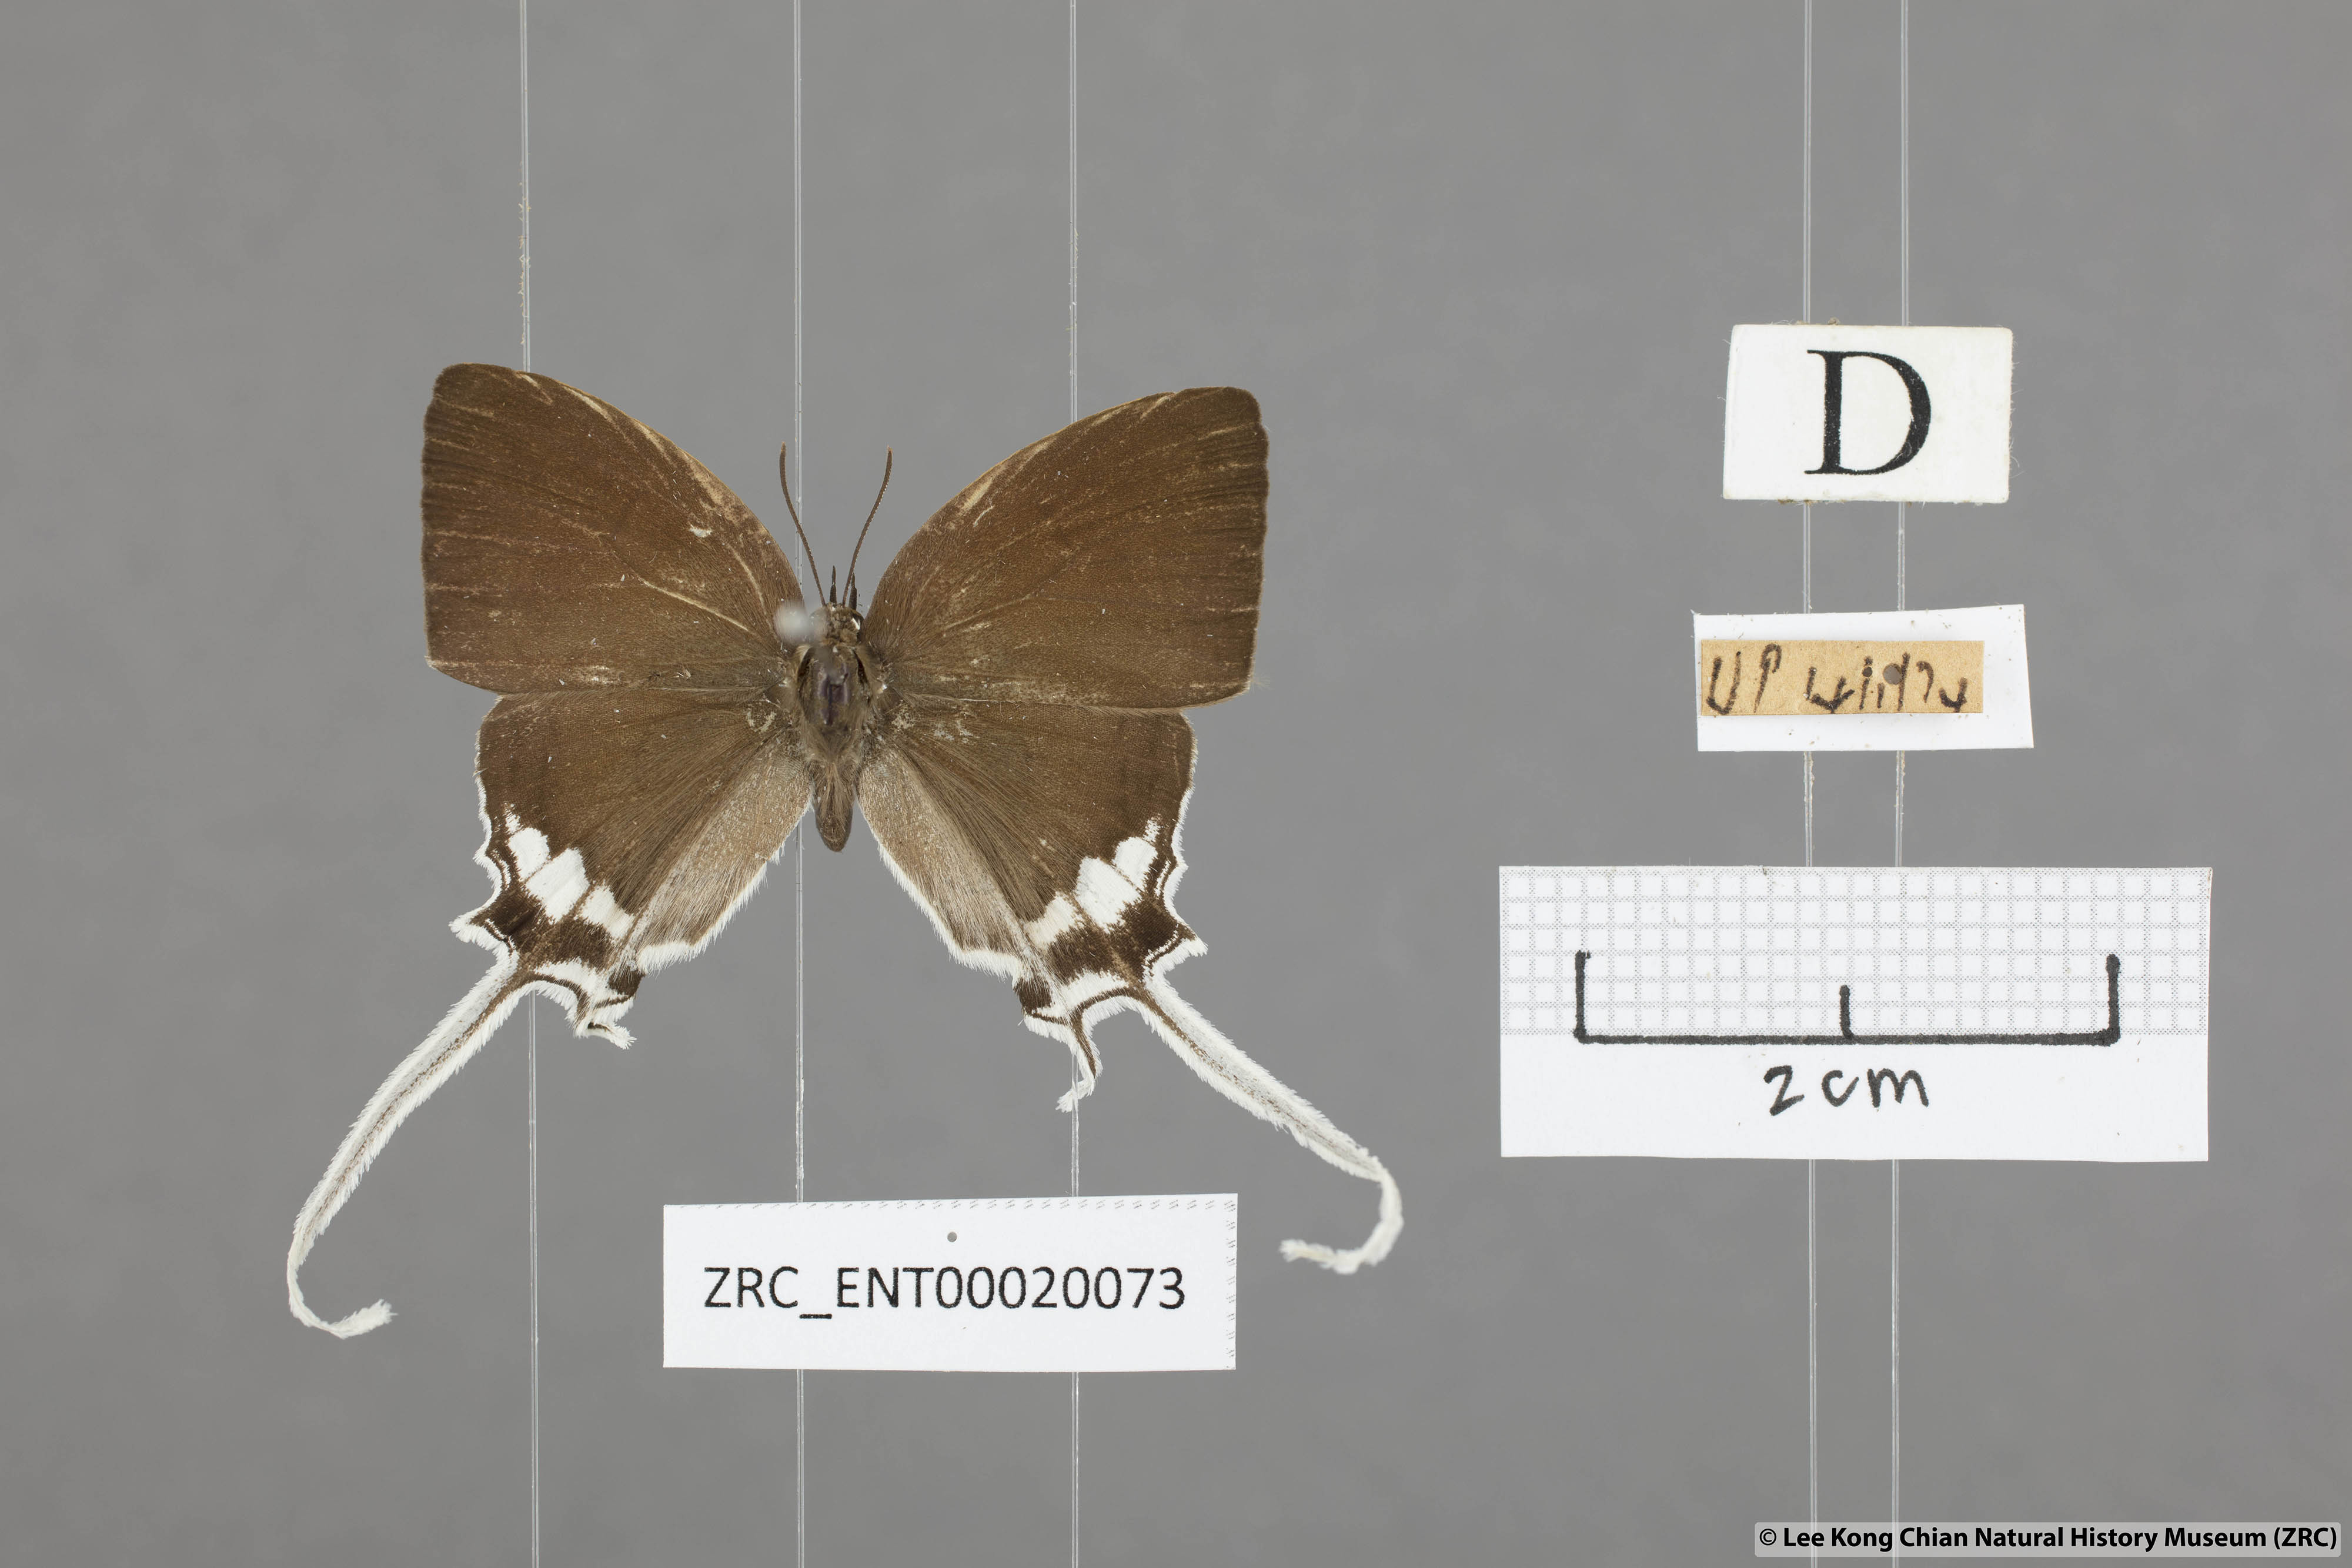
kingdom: Animalia
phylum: Arthropoda
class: Insecta
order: Lepidoptera
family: Lycaenidae
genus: Cheritra
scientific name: Cheritra freja
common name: Common imperial
